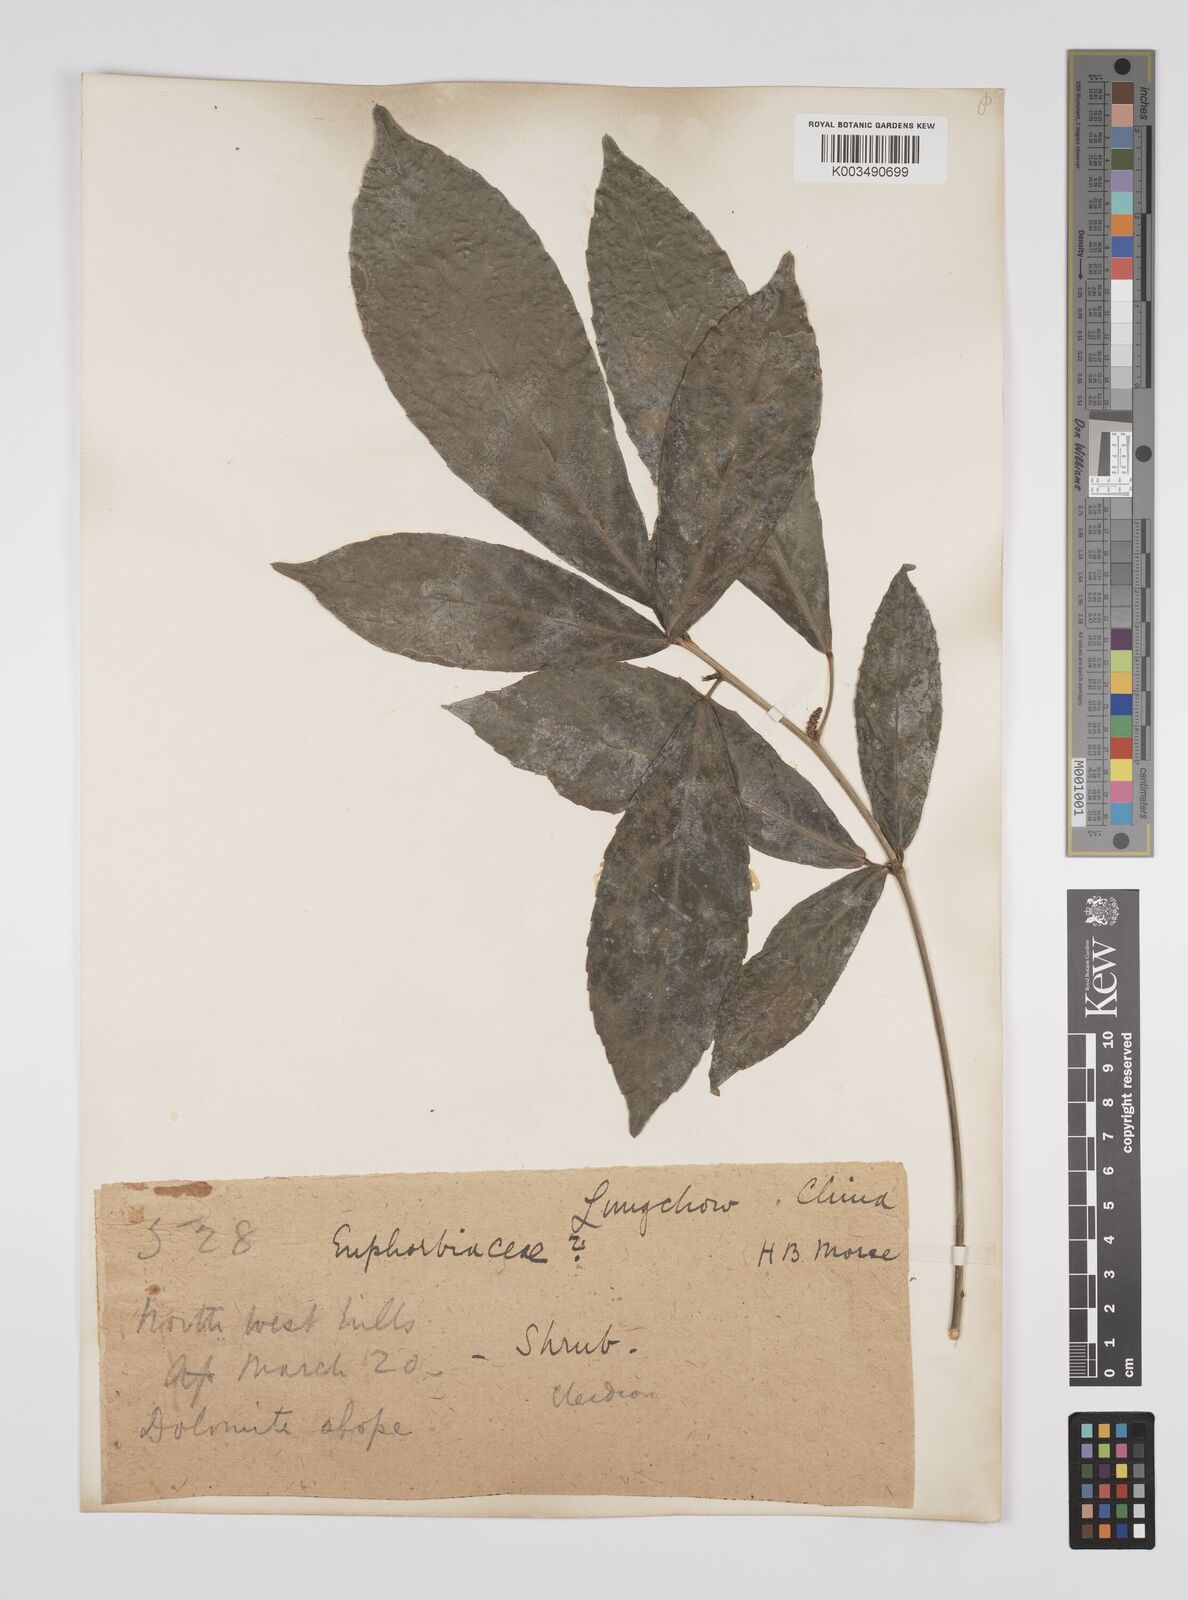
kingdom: Plantae
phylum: Tracheophyta
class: Magnoliopsida
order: Malpighiales
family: Euphorbiaceae
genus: Cleidion
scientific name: Cleidion brevipetiolatum
